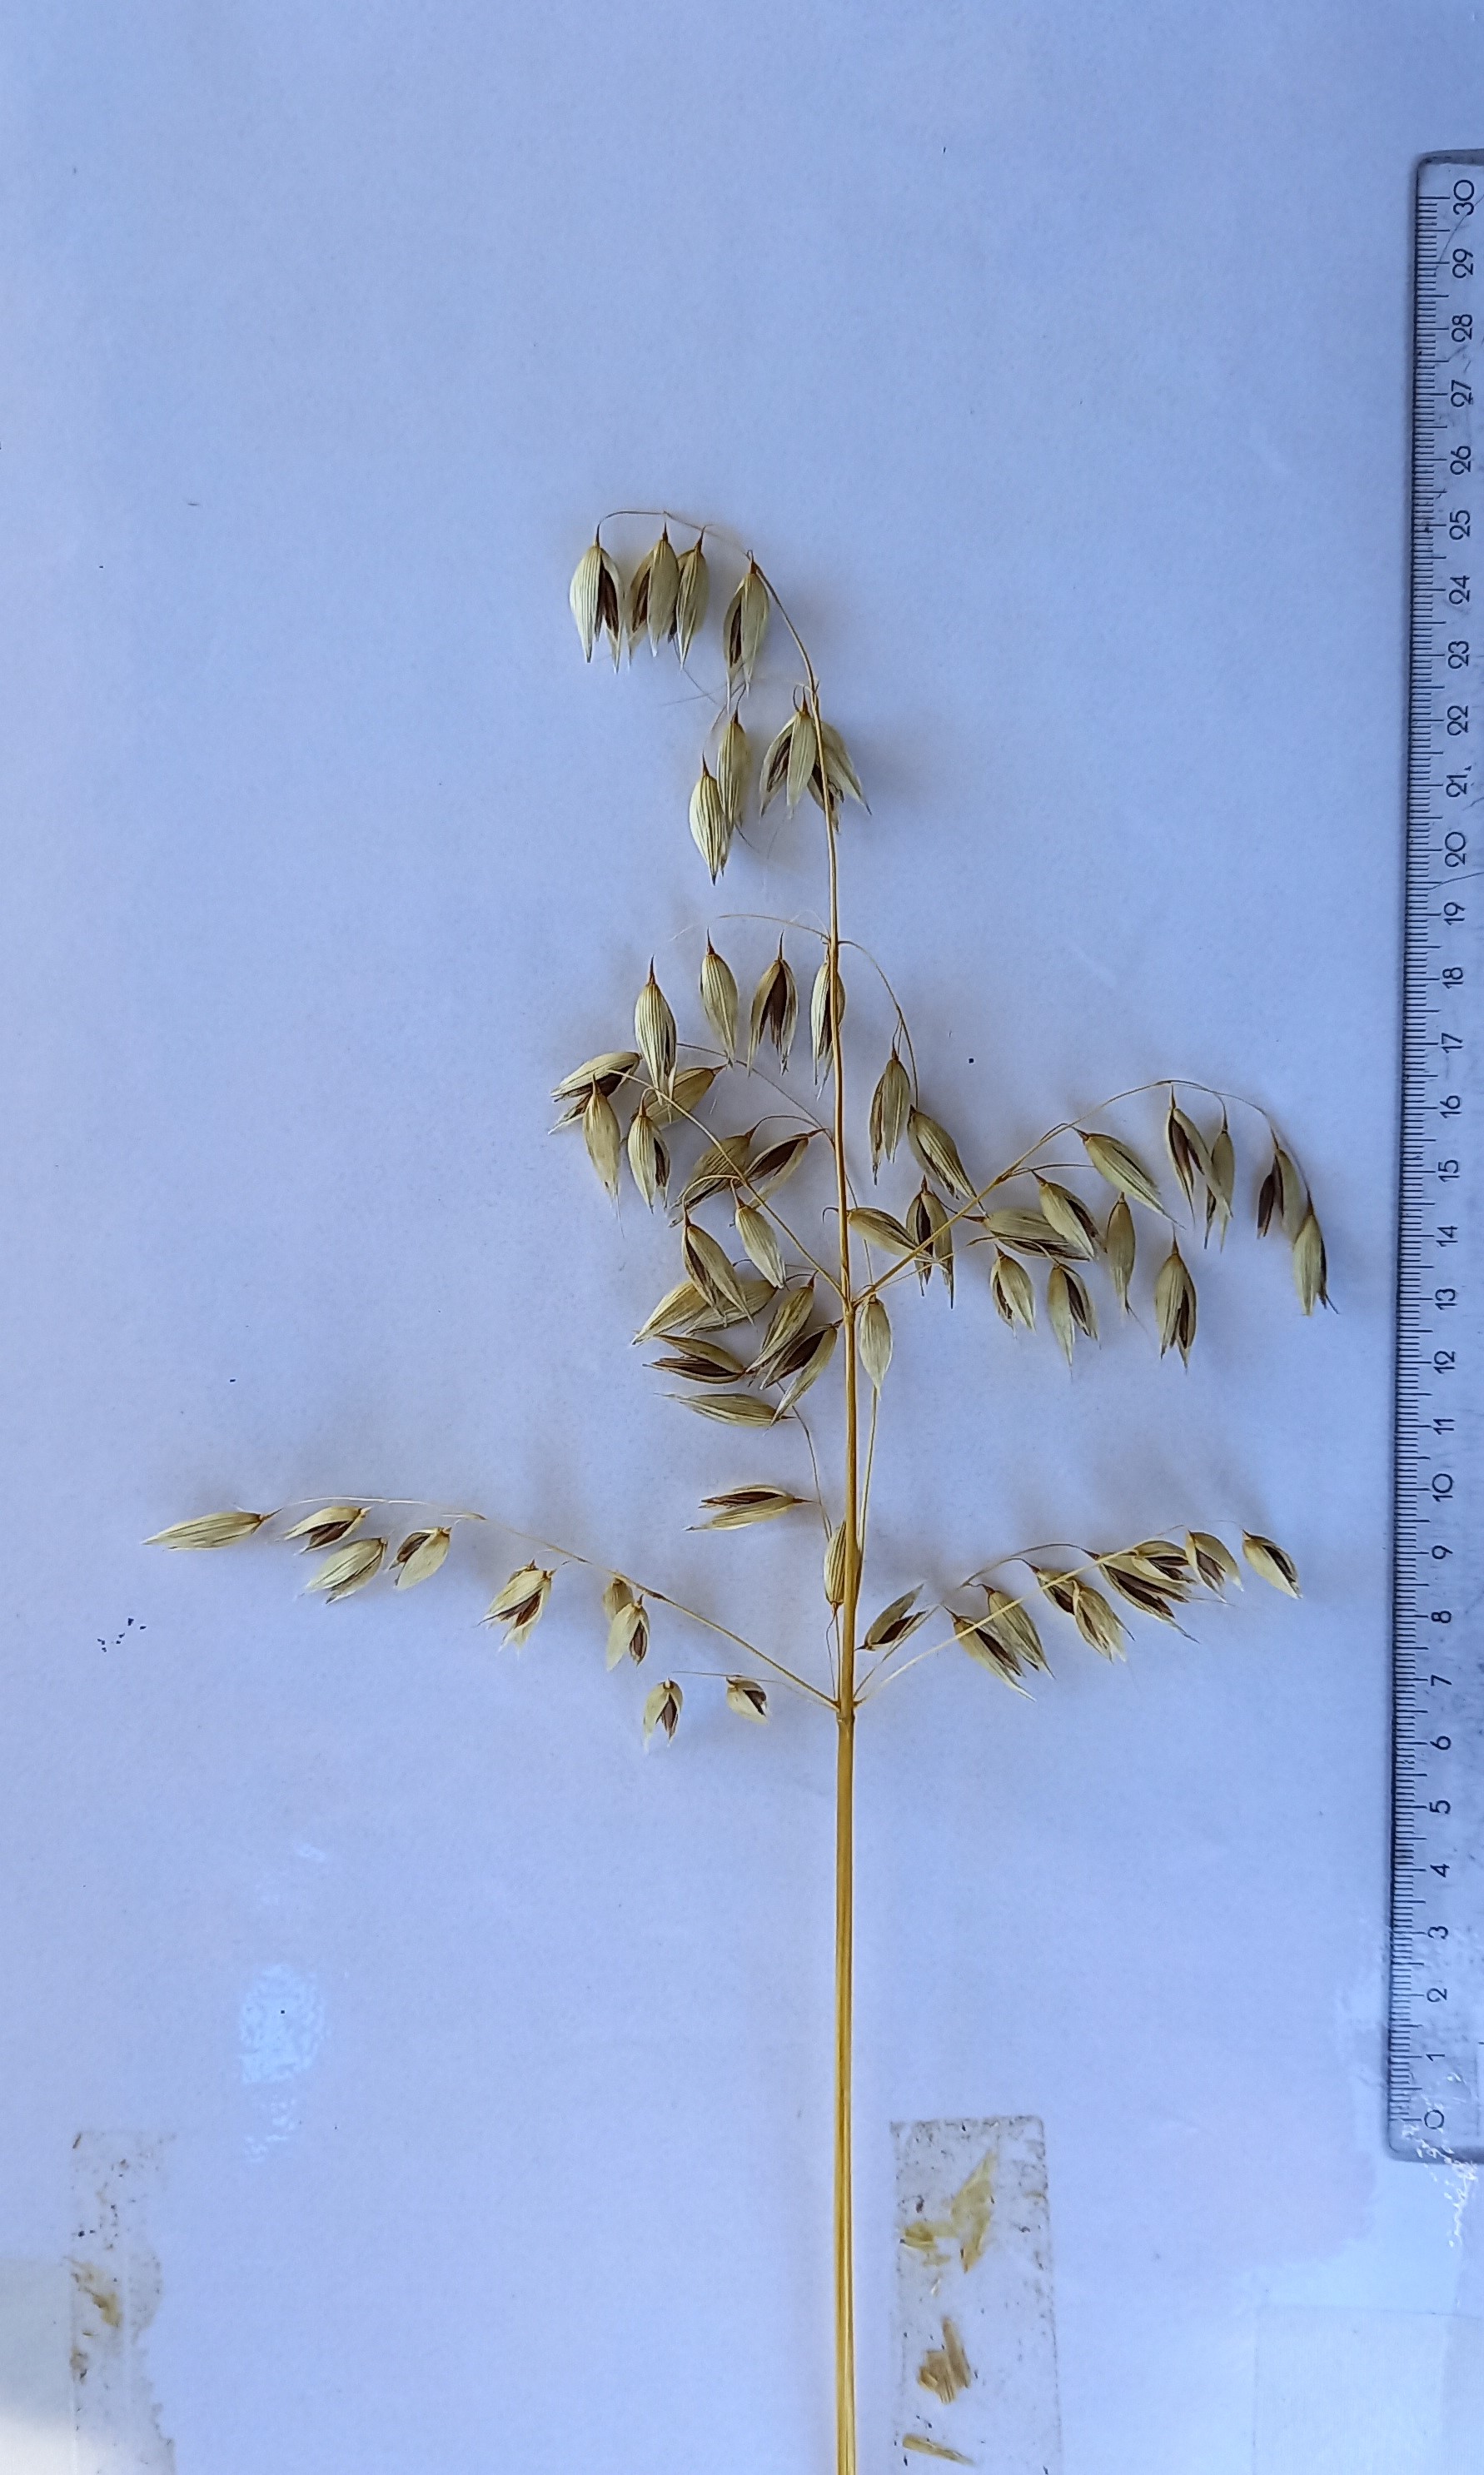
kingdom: Plantae
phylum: Tracheophyta
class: Liliopsida
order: Poales
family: Poaceae
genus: Avena
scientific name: Avena sativa
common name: Oat
